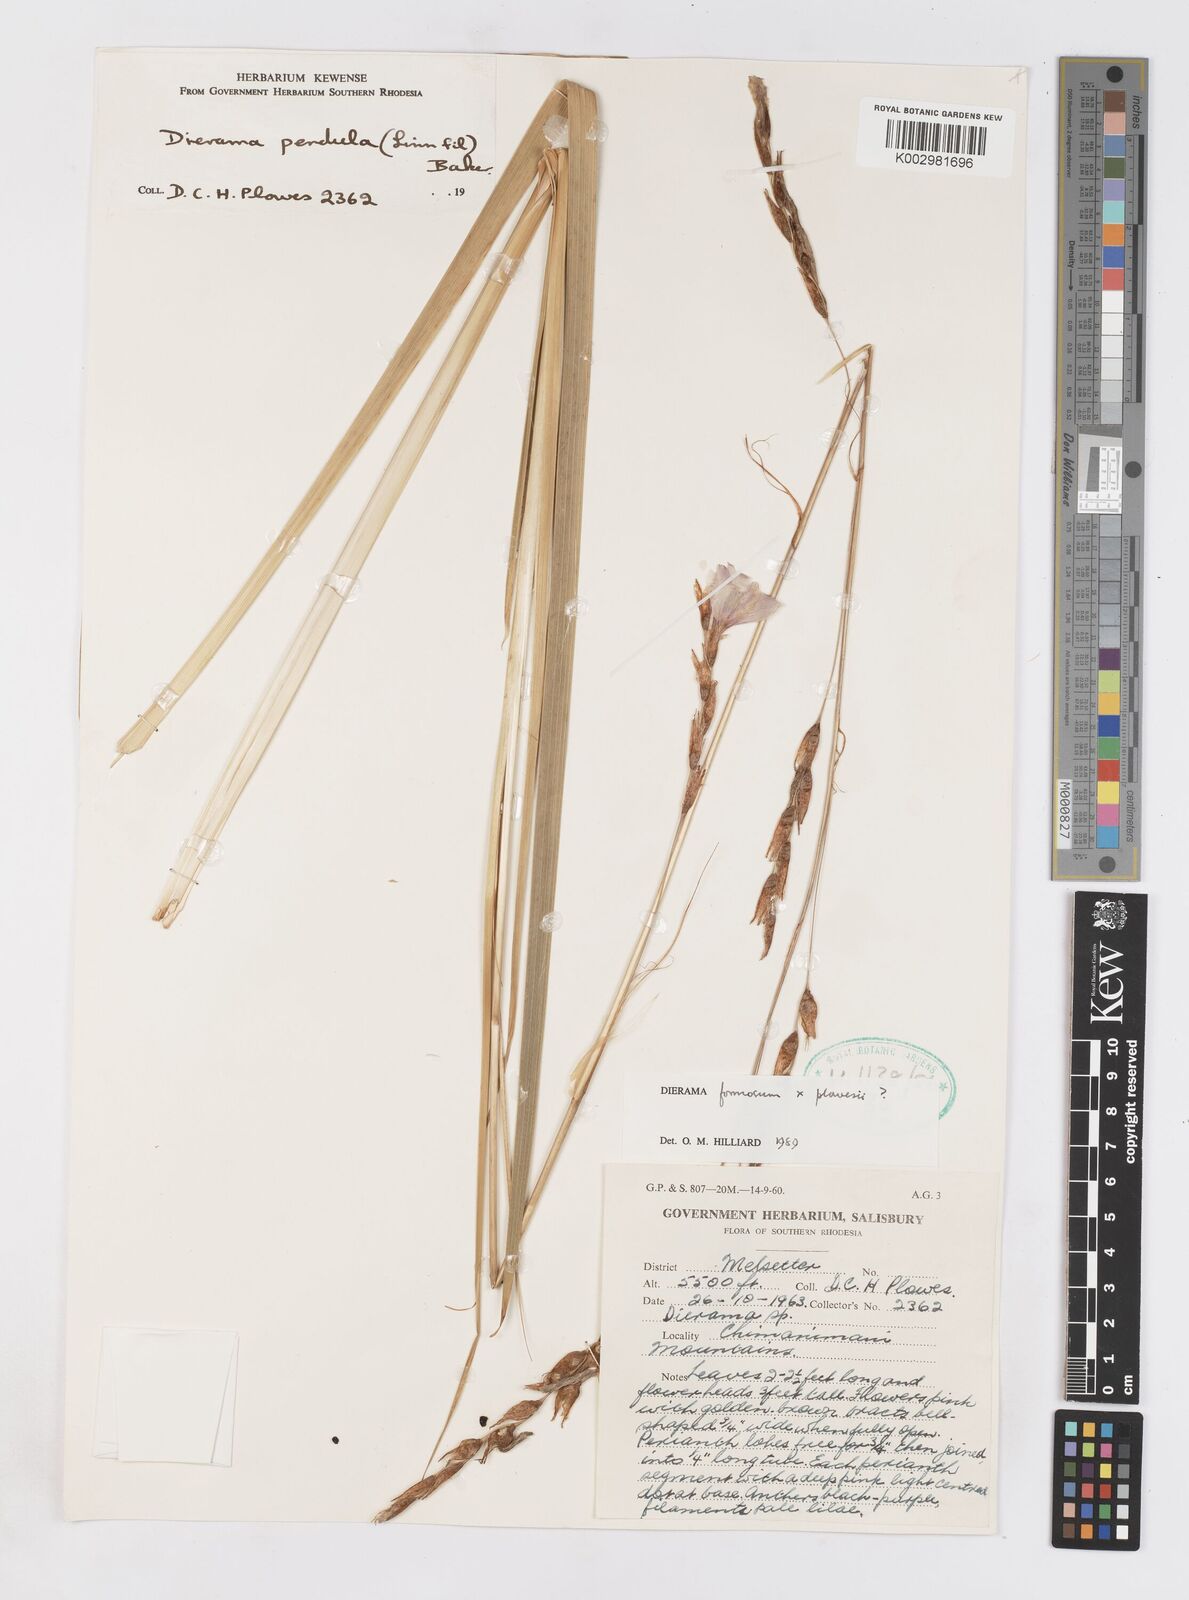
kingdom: Plantae
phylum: Tracheophyta
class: Liliopsida
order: Asparagales
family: Iridaceae
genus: Dierama
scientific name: Dierama formosum
